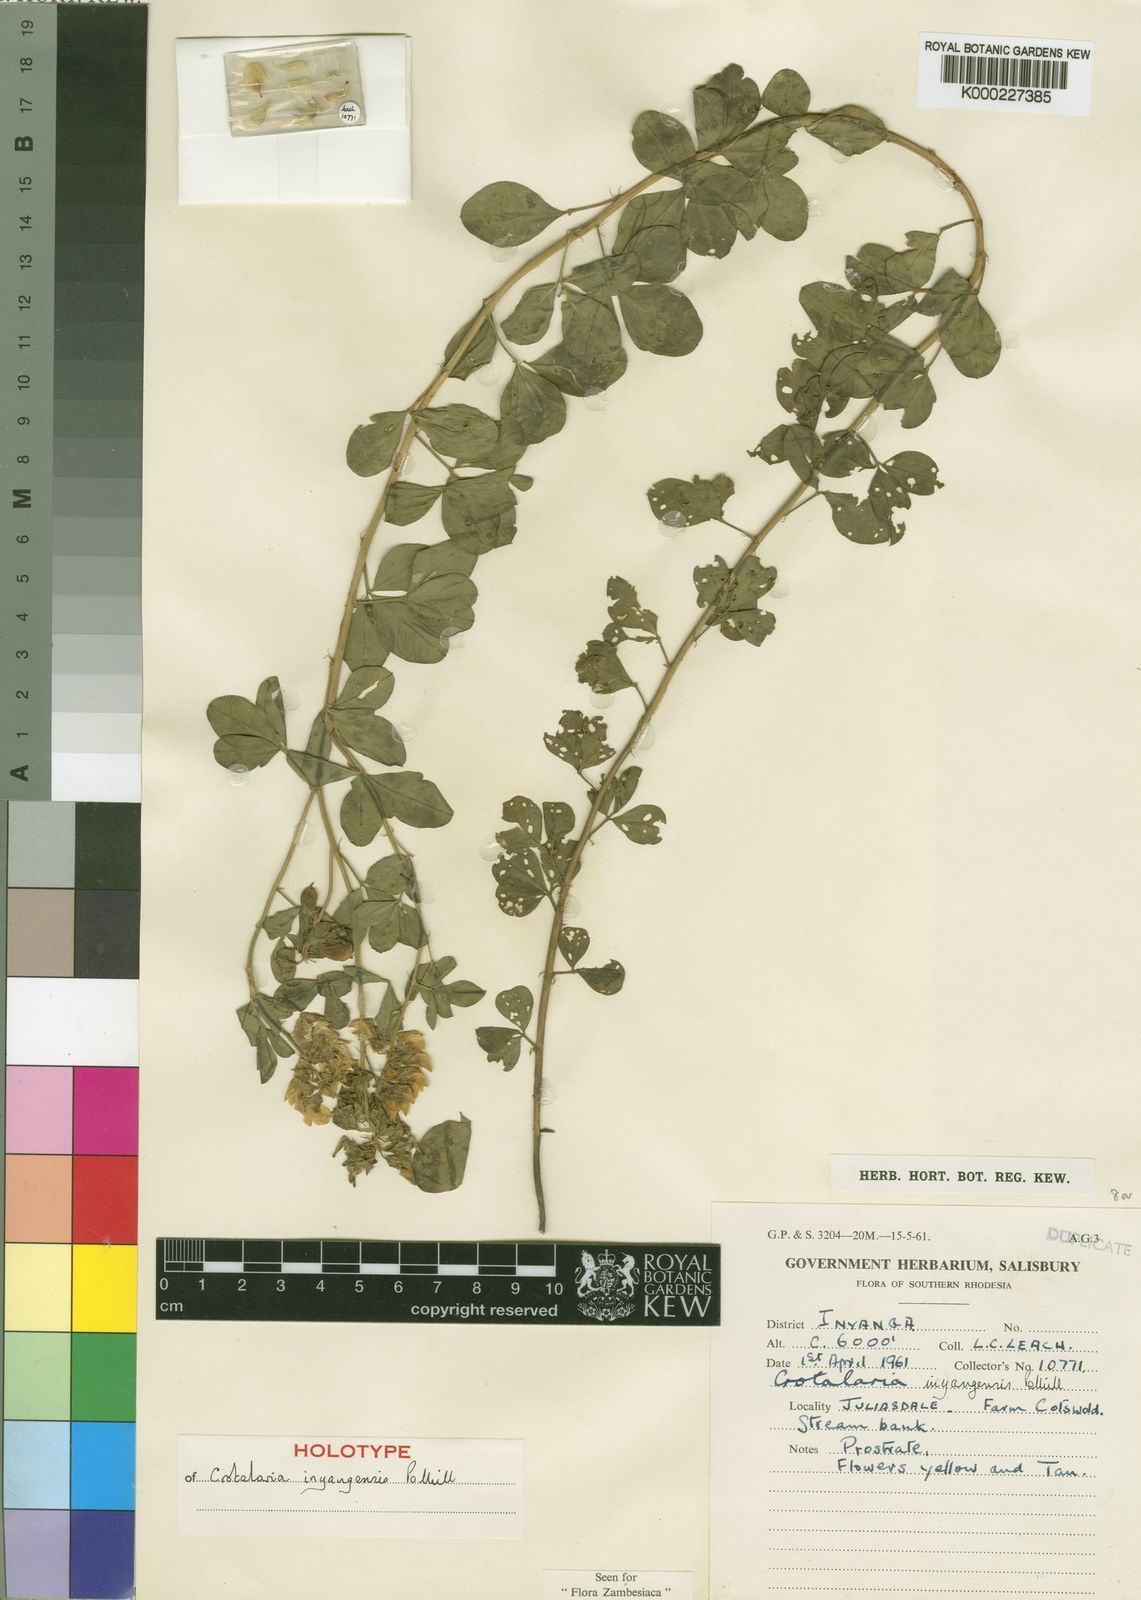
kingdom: Plantae
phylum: Tracheophyta
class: Magnoliopsida
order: Fabales
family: Fabaceae
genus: Crotalaria
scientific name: Crotalaria inyangensis
